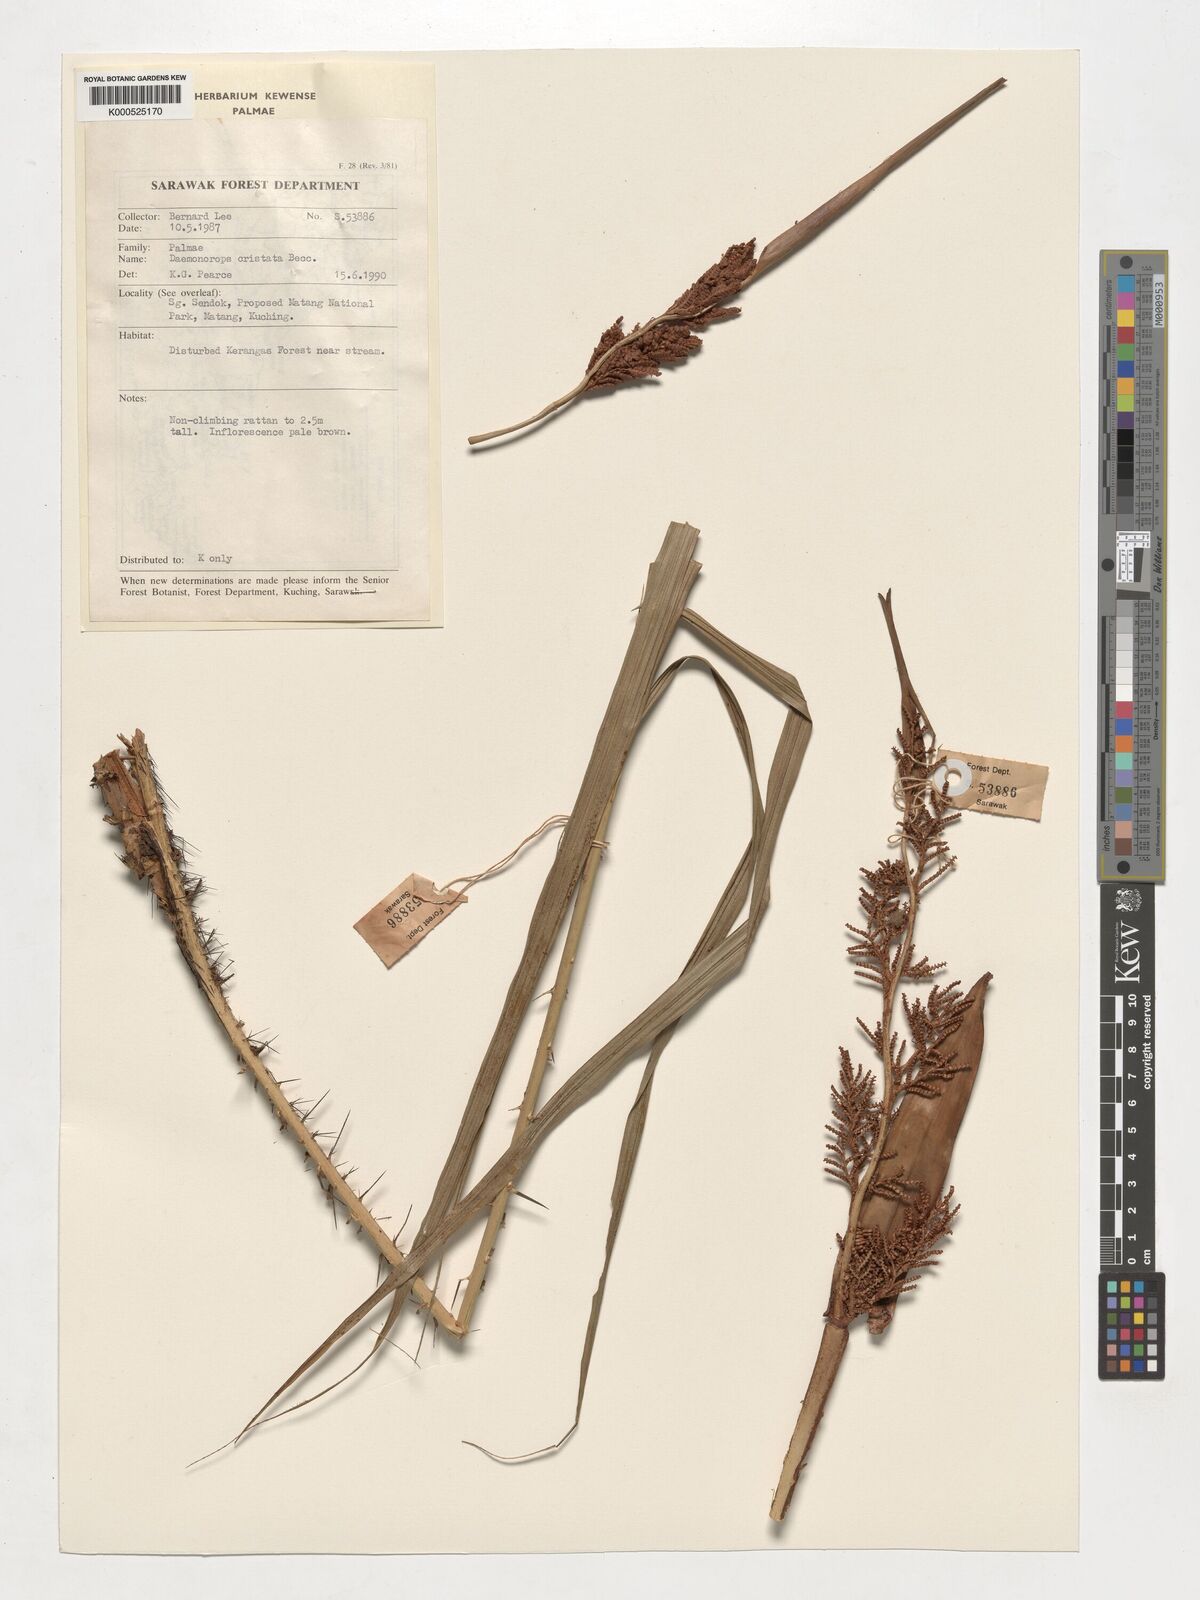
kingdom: Plantae
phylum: Tracheophyta
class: Liliopsida
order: Arecales
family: Arecaceae
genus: Calamus
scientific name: Calamus cristatus
